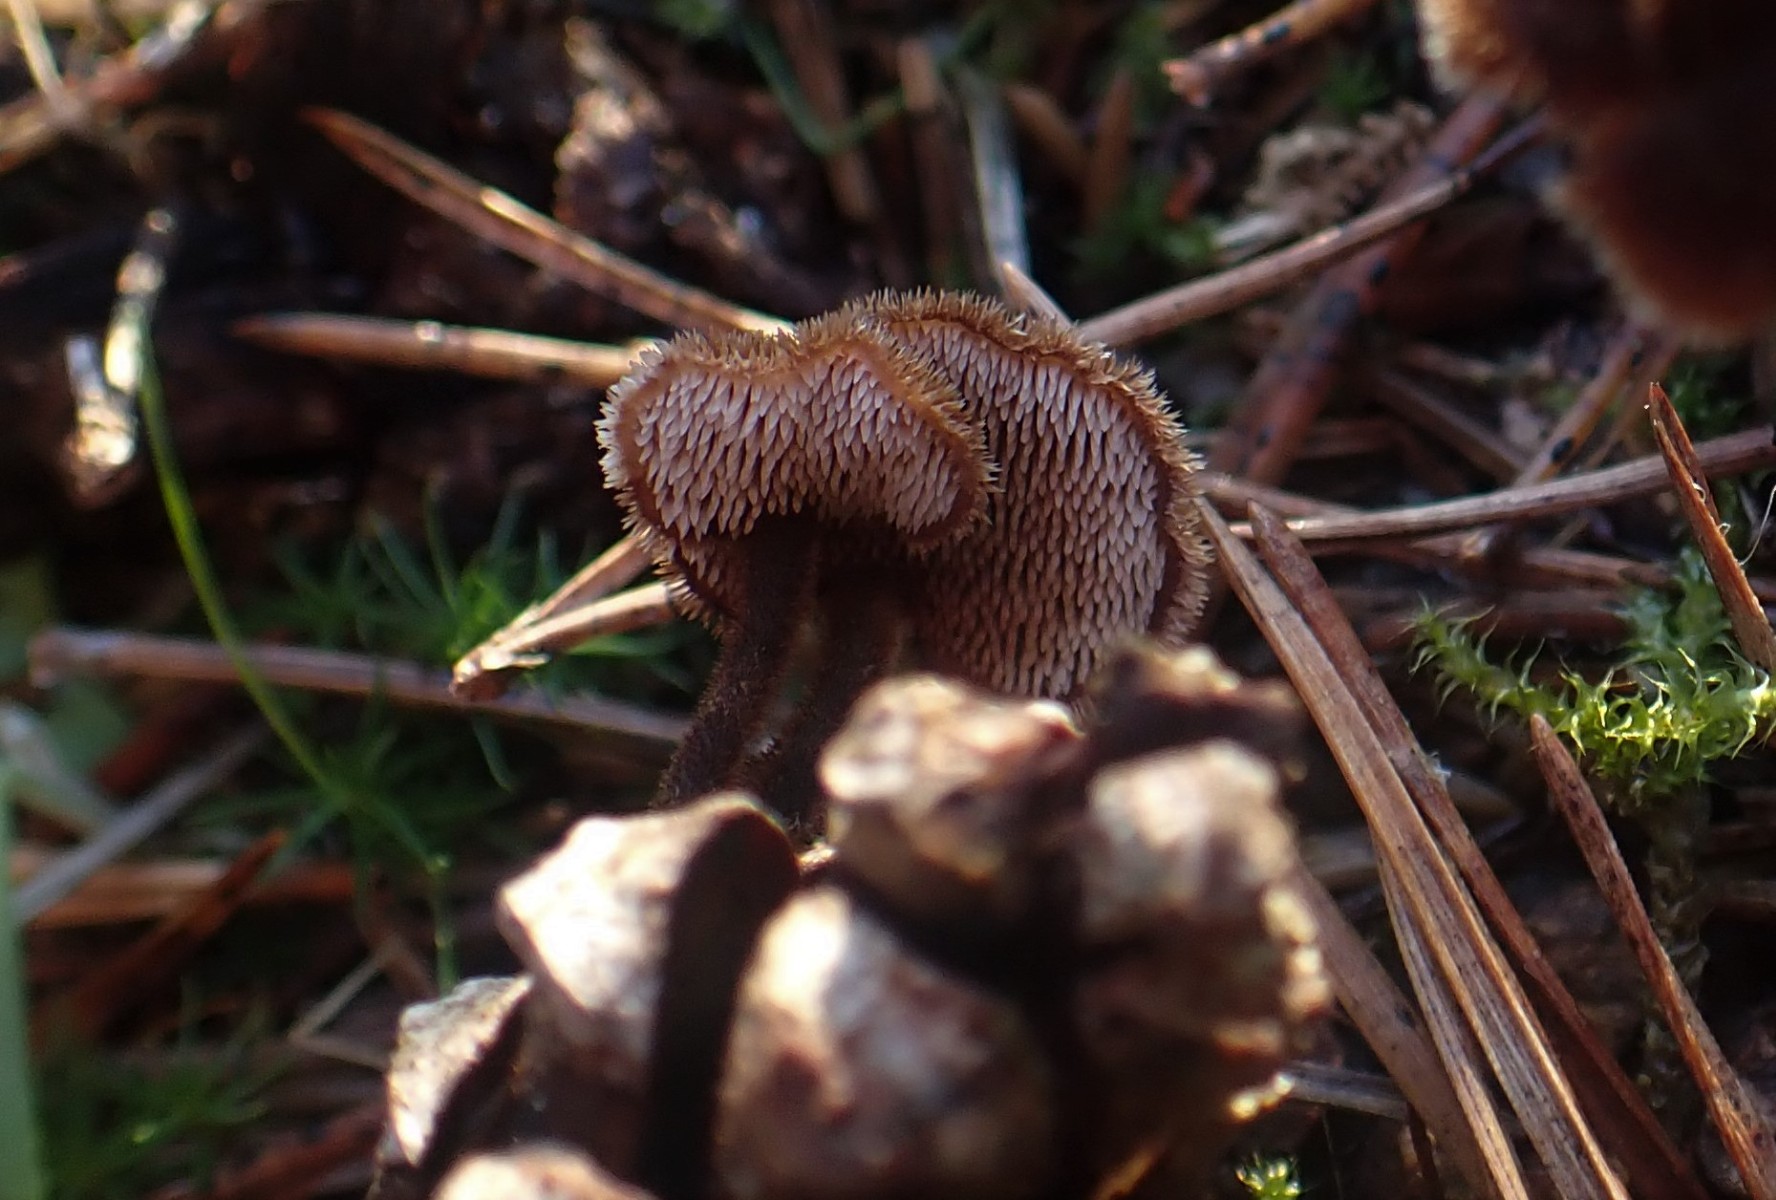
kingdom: Fungi
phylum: Basidiomycota
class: Agaricomycetes
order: Russulales
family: Auriscalpiaceae
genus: Auriscalpium
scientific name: Auriscalpium vulgare
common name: koglepigsvamp
